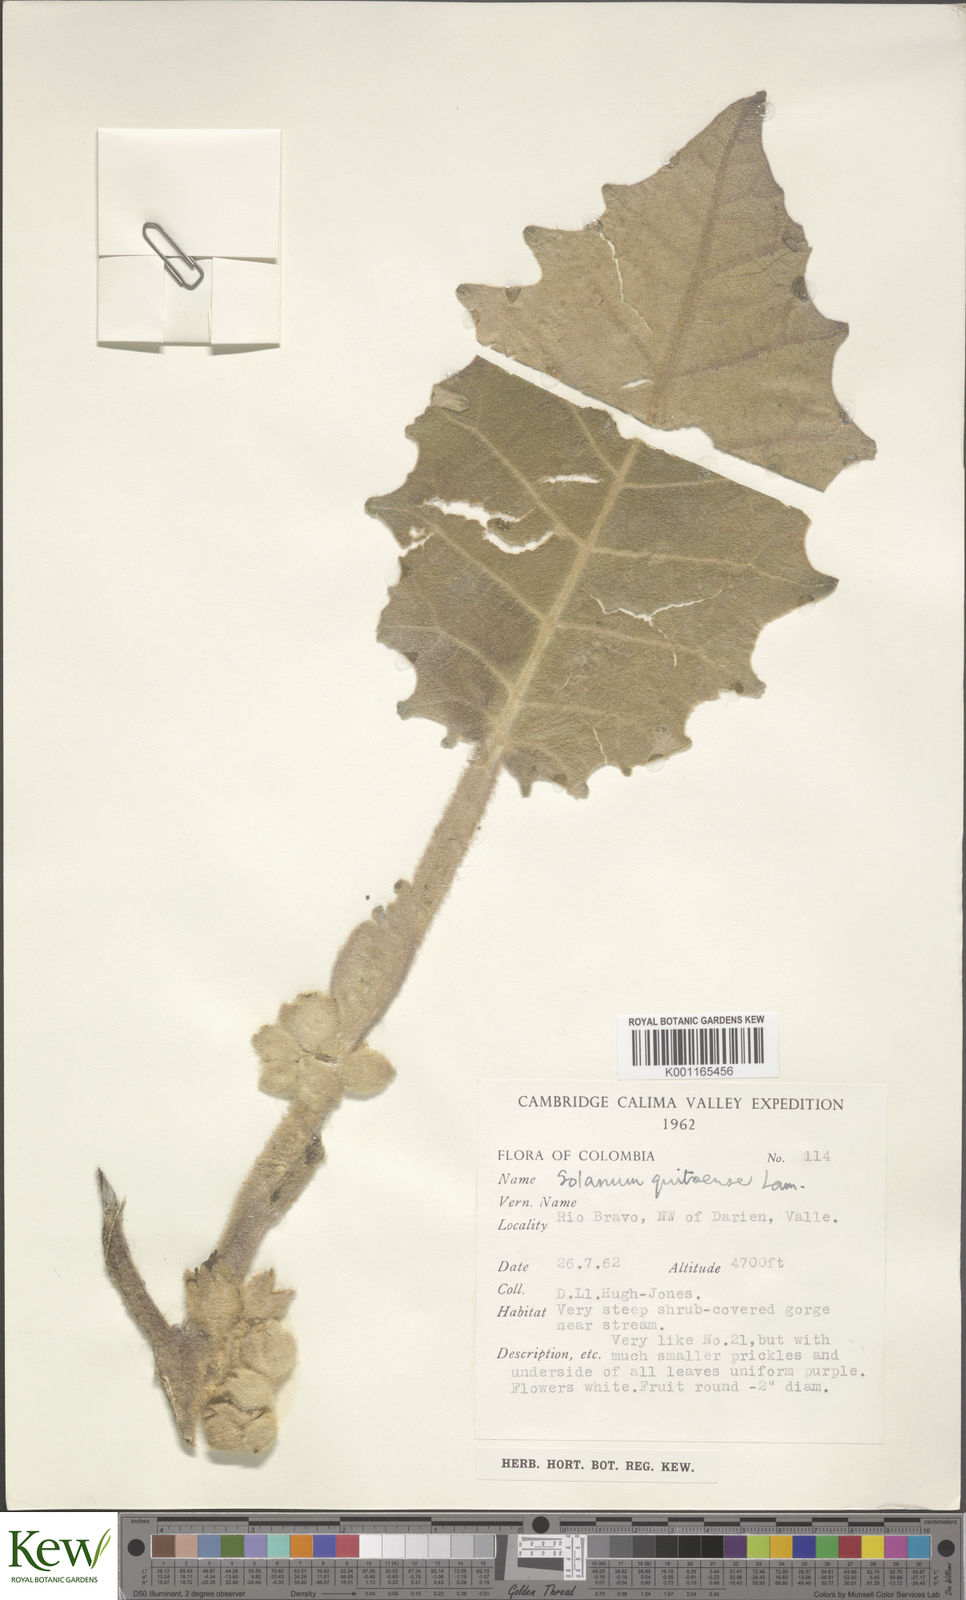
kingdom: Plantae
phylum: Tracheophyta
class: Magnoliopsida
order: Solanales
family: Solanaceae
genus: Solanum
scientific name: Solanum quitoense
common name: Quito-orange
